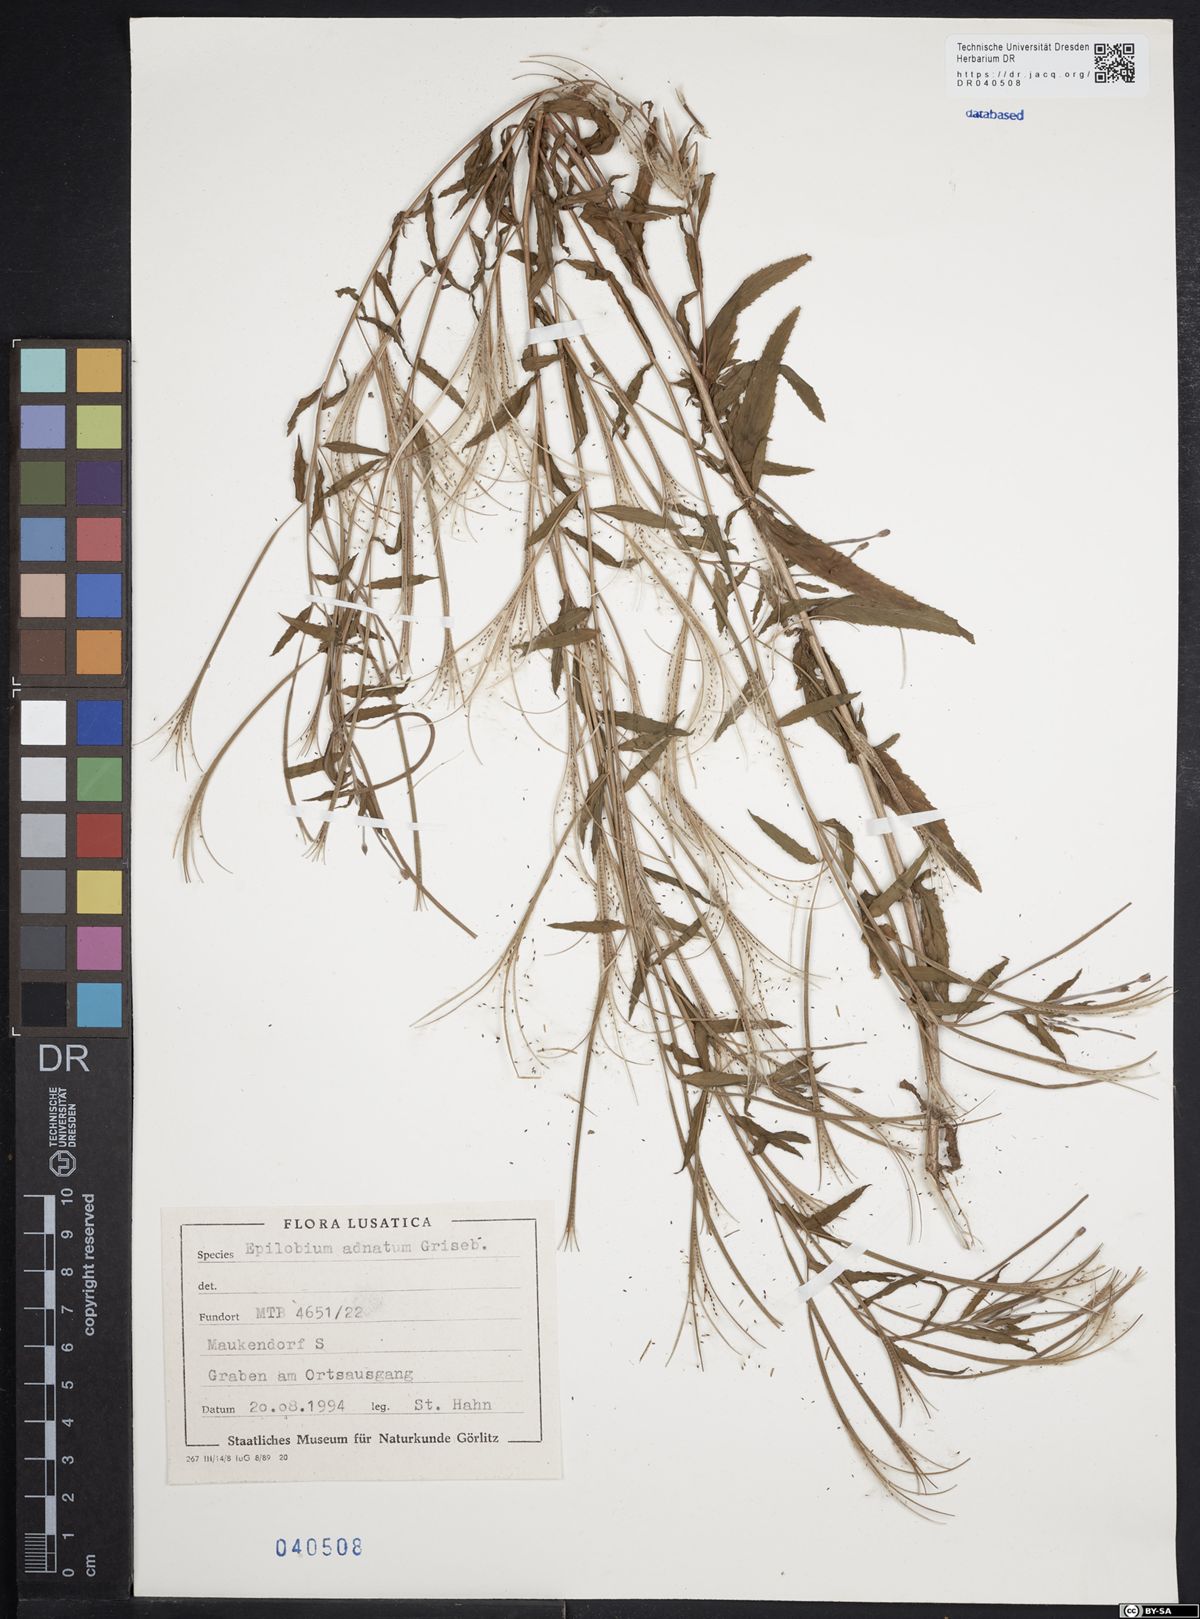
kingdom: Plantae
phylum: Tracheophyta
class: Magnoliopsida
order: Myrtales
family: Onagraceae
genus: Epilobium
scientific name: Epilobium tetragonum
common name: Square-stemmed willowherb
